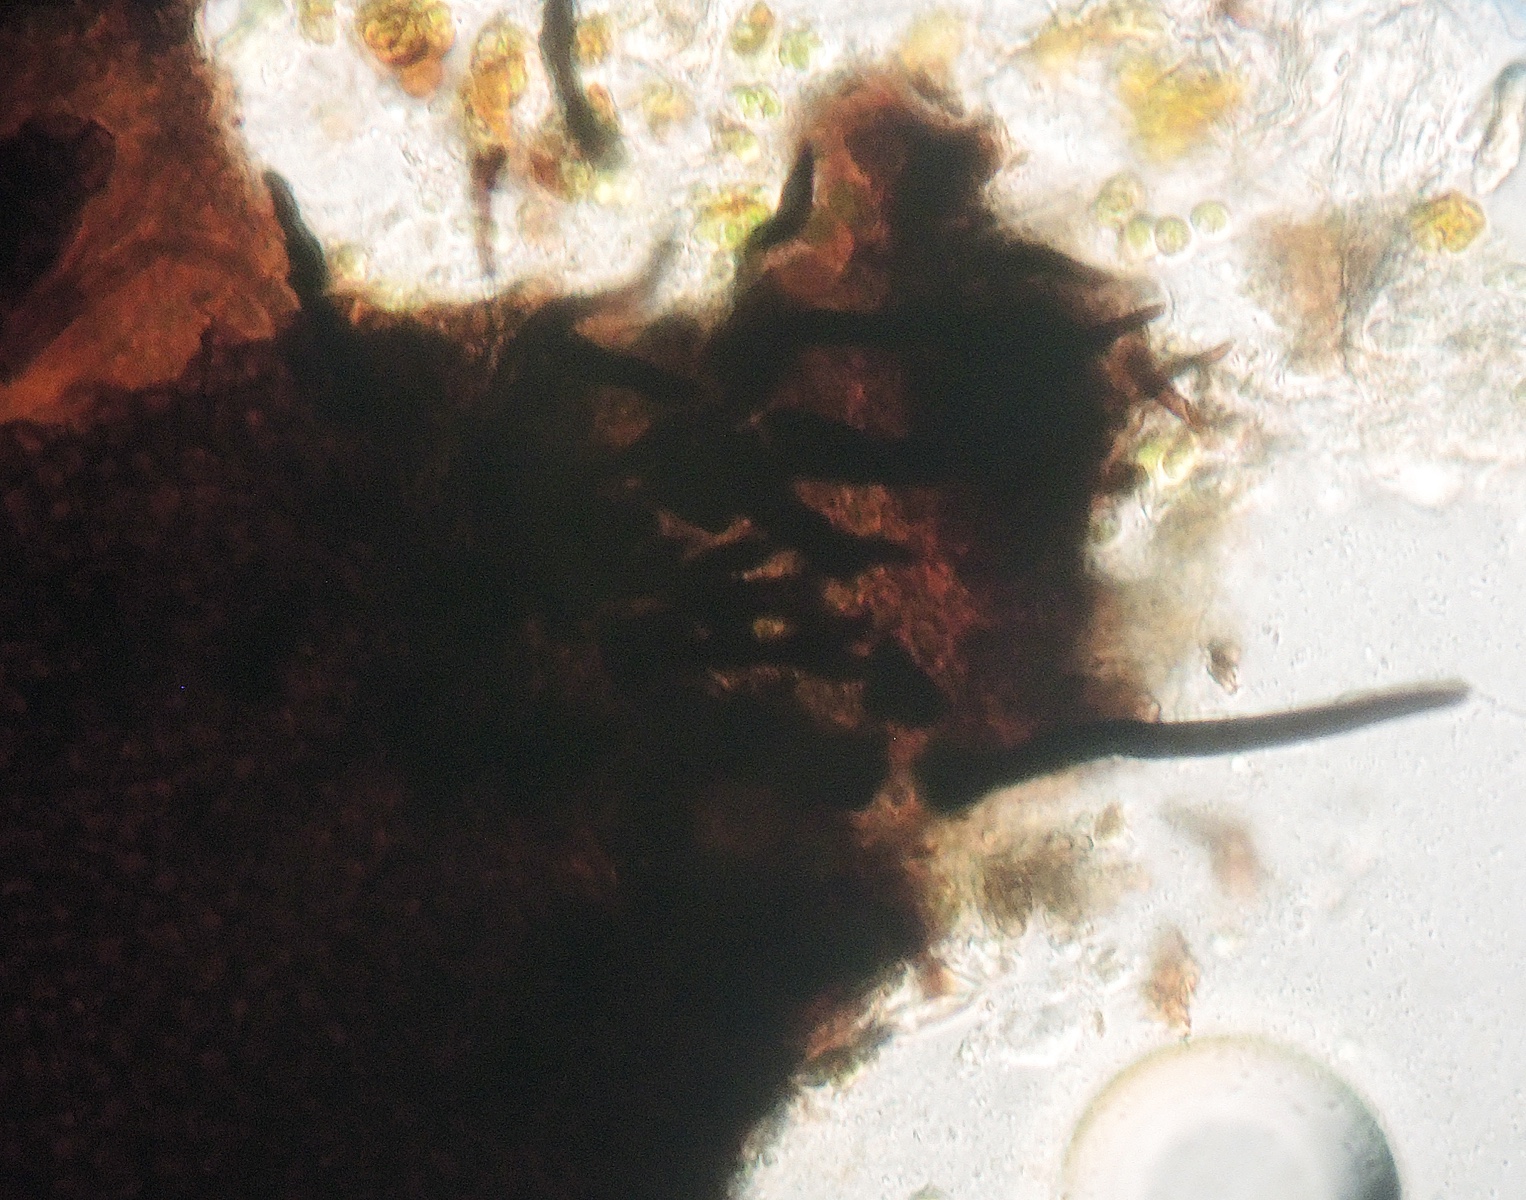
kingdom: Fungi
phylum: Ascomycota
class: Dothideomycetes
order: Phaeotrichales
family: Phaeotrichaceae
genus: Trichodelitschia
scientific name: Trichodelitschia bisporula
